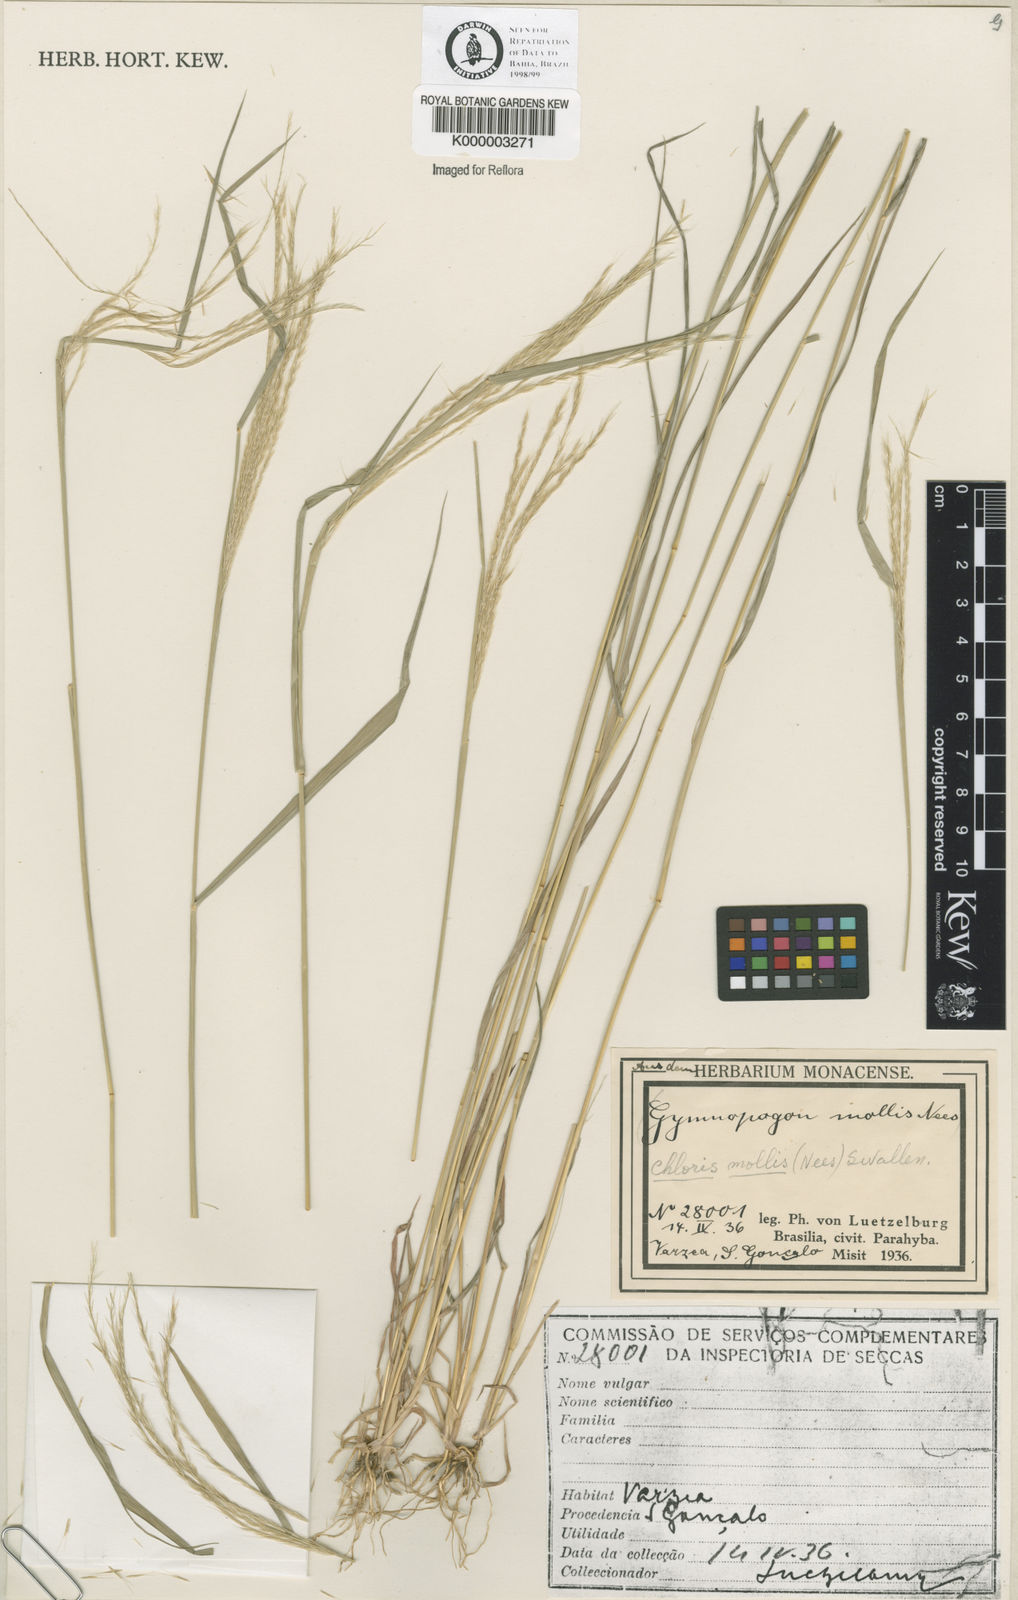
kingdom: Plantae
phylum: Tracheophyta
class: Liliopsida
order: Poales
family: Poaceae
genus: Leptochloa
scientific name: Leptochloa anisopoda
